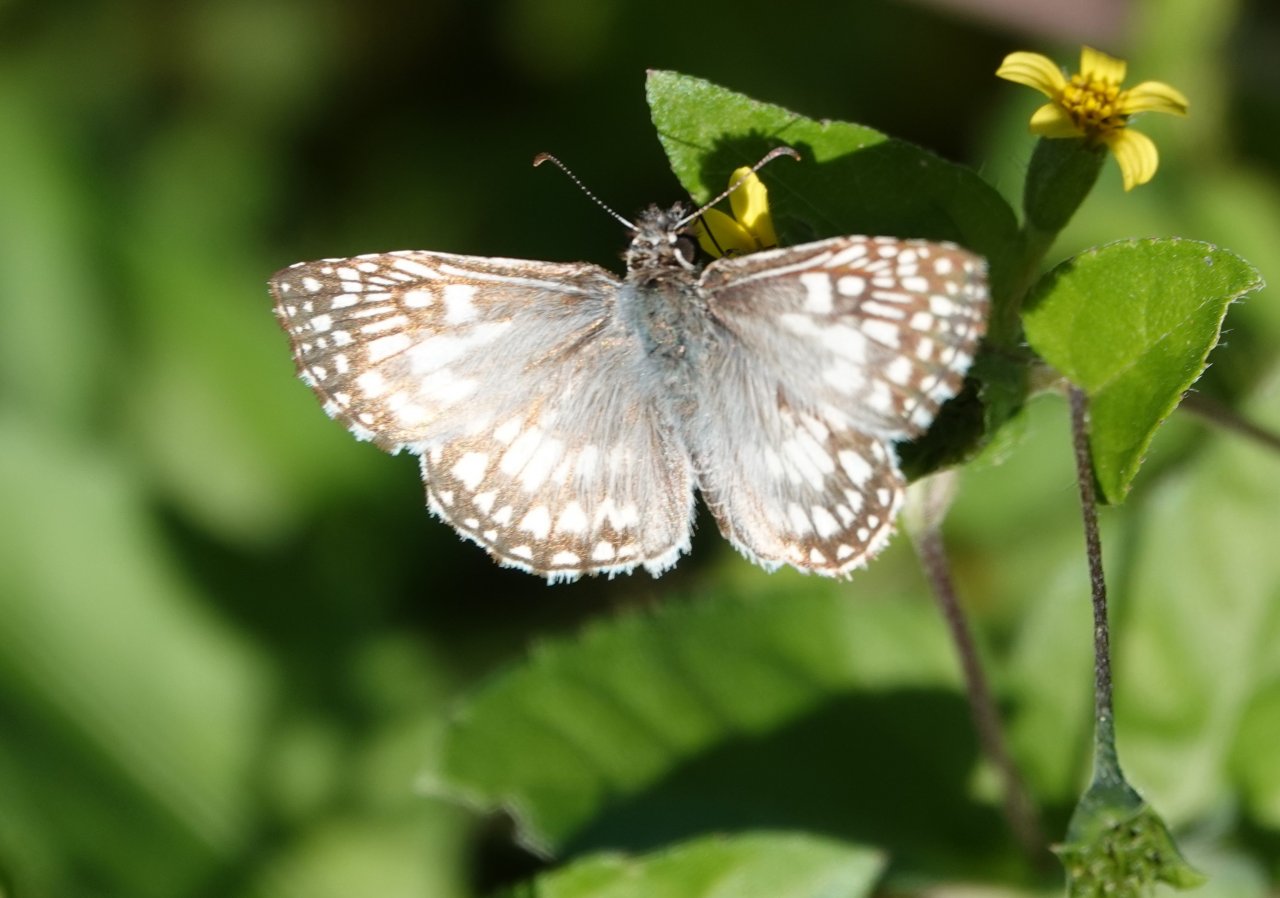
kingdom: Animalia
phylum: Arthropoda
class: Insecta
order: Lepidoptera
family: Hesperiidae
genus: Pyrgus
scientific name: Pyrgus oileus
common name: Tropical Checkered-Skipper
